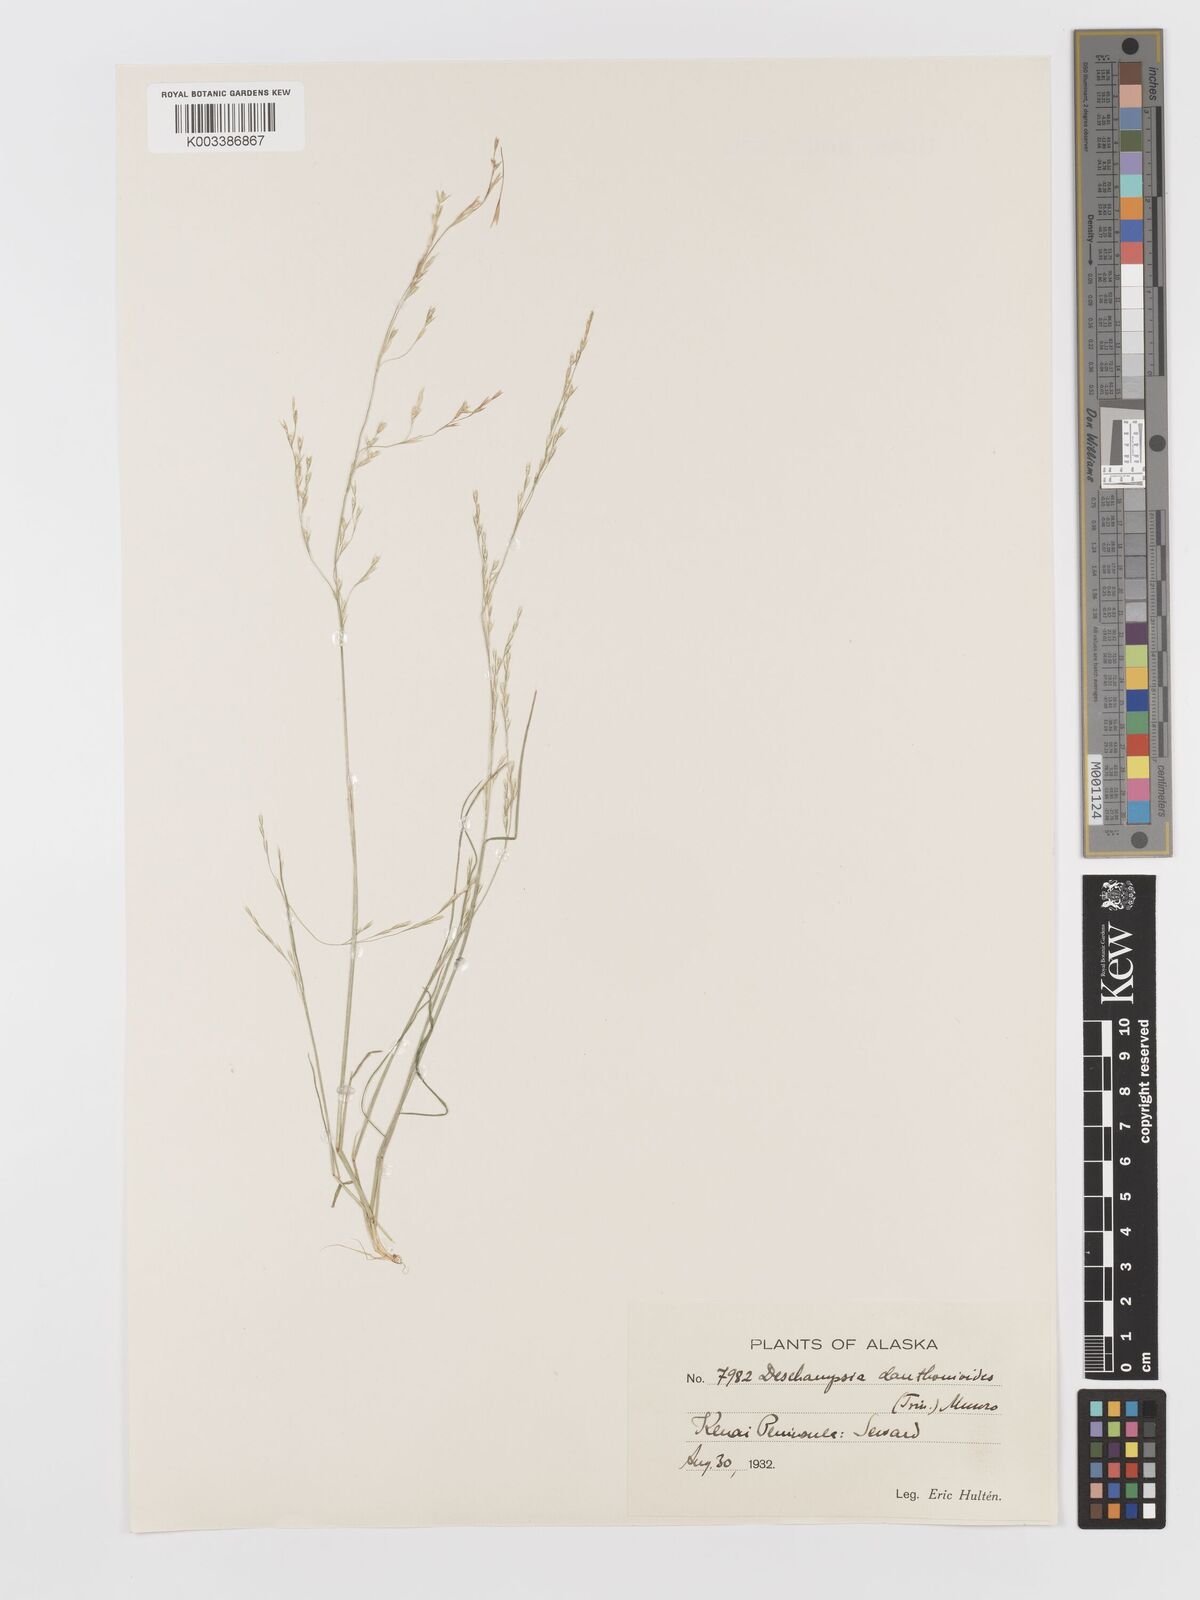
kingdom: Plantae
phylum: Tracheophyta
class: Liliopsida
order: Poales
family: Poaceae
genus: Deschampsia
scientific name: Deschampsia danthonioides
